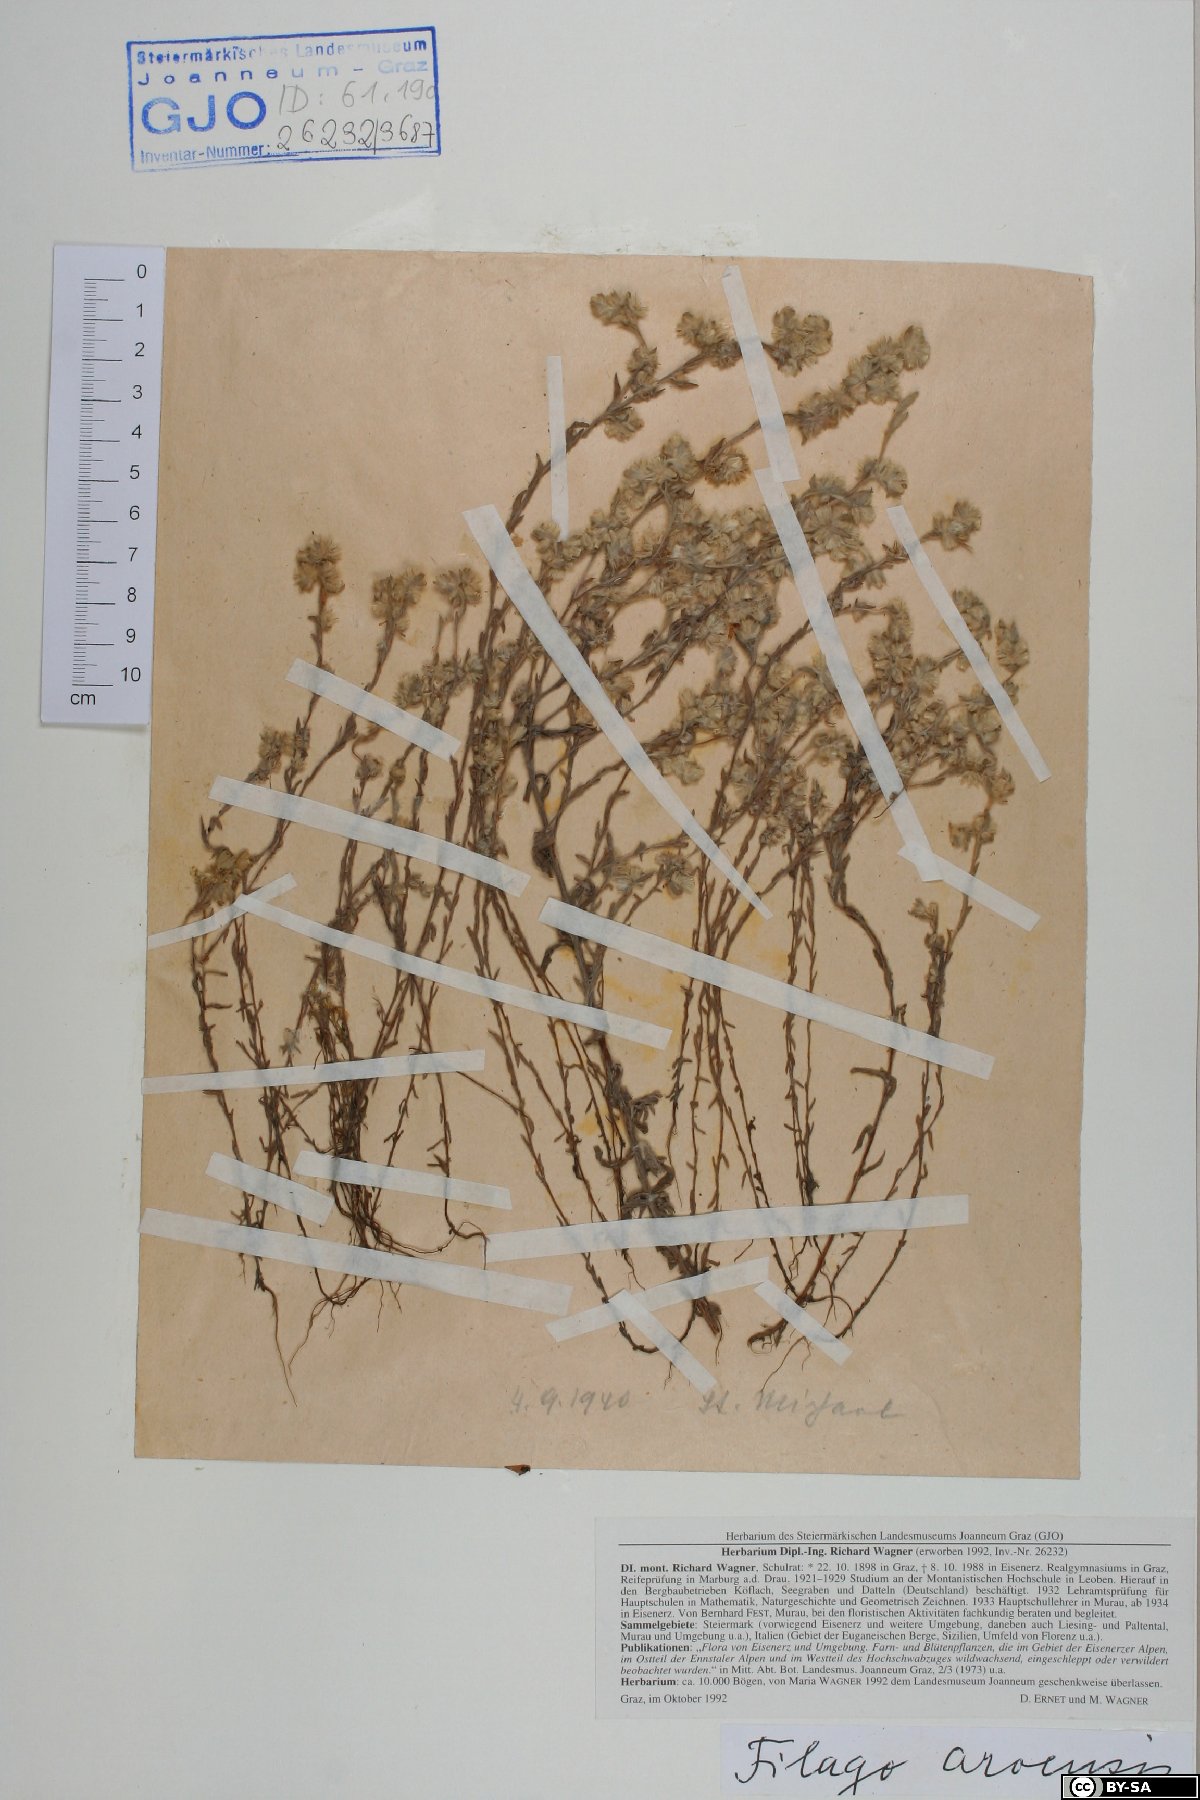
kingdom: Plantae
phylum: Tracheophyta
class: Magnoliopsida
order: Asterales
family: Asteraceae
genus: Filago
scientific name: Filago arvensis
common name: Field cudweed
